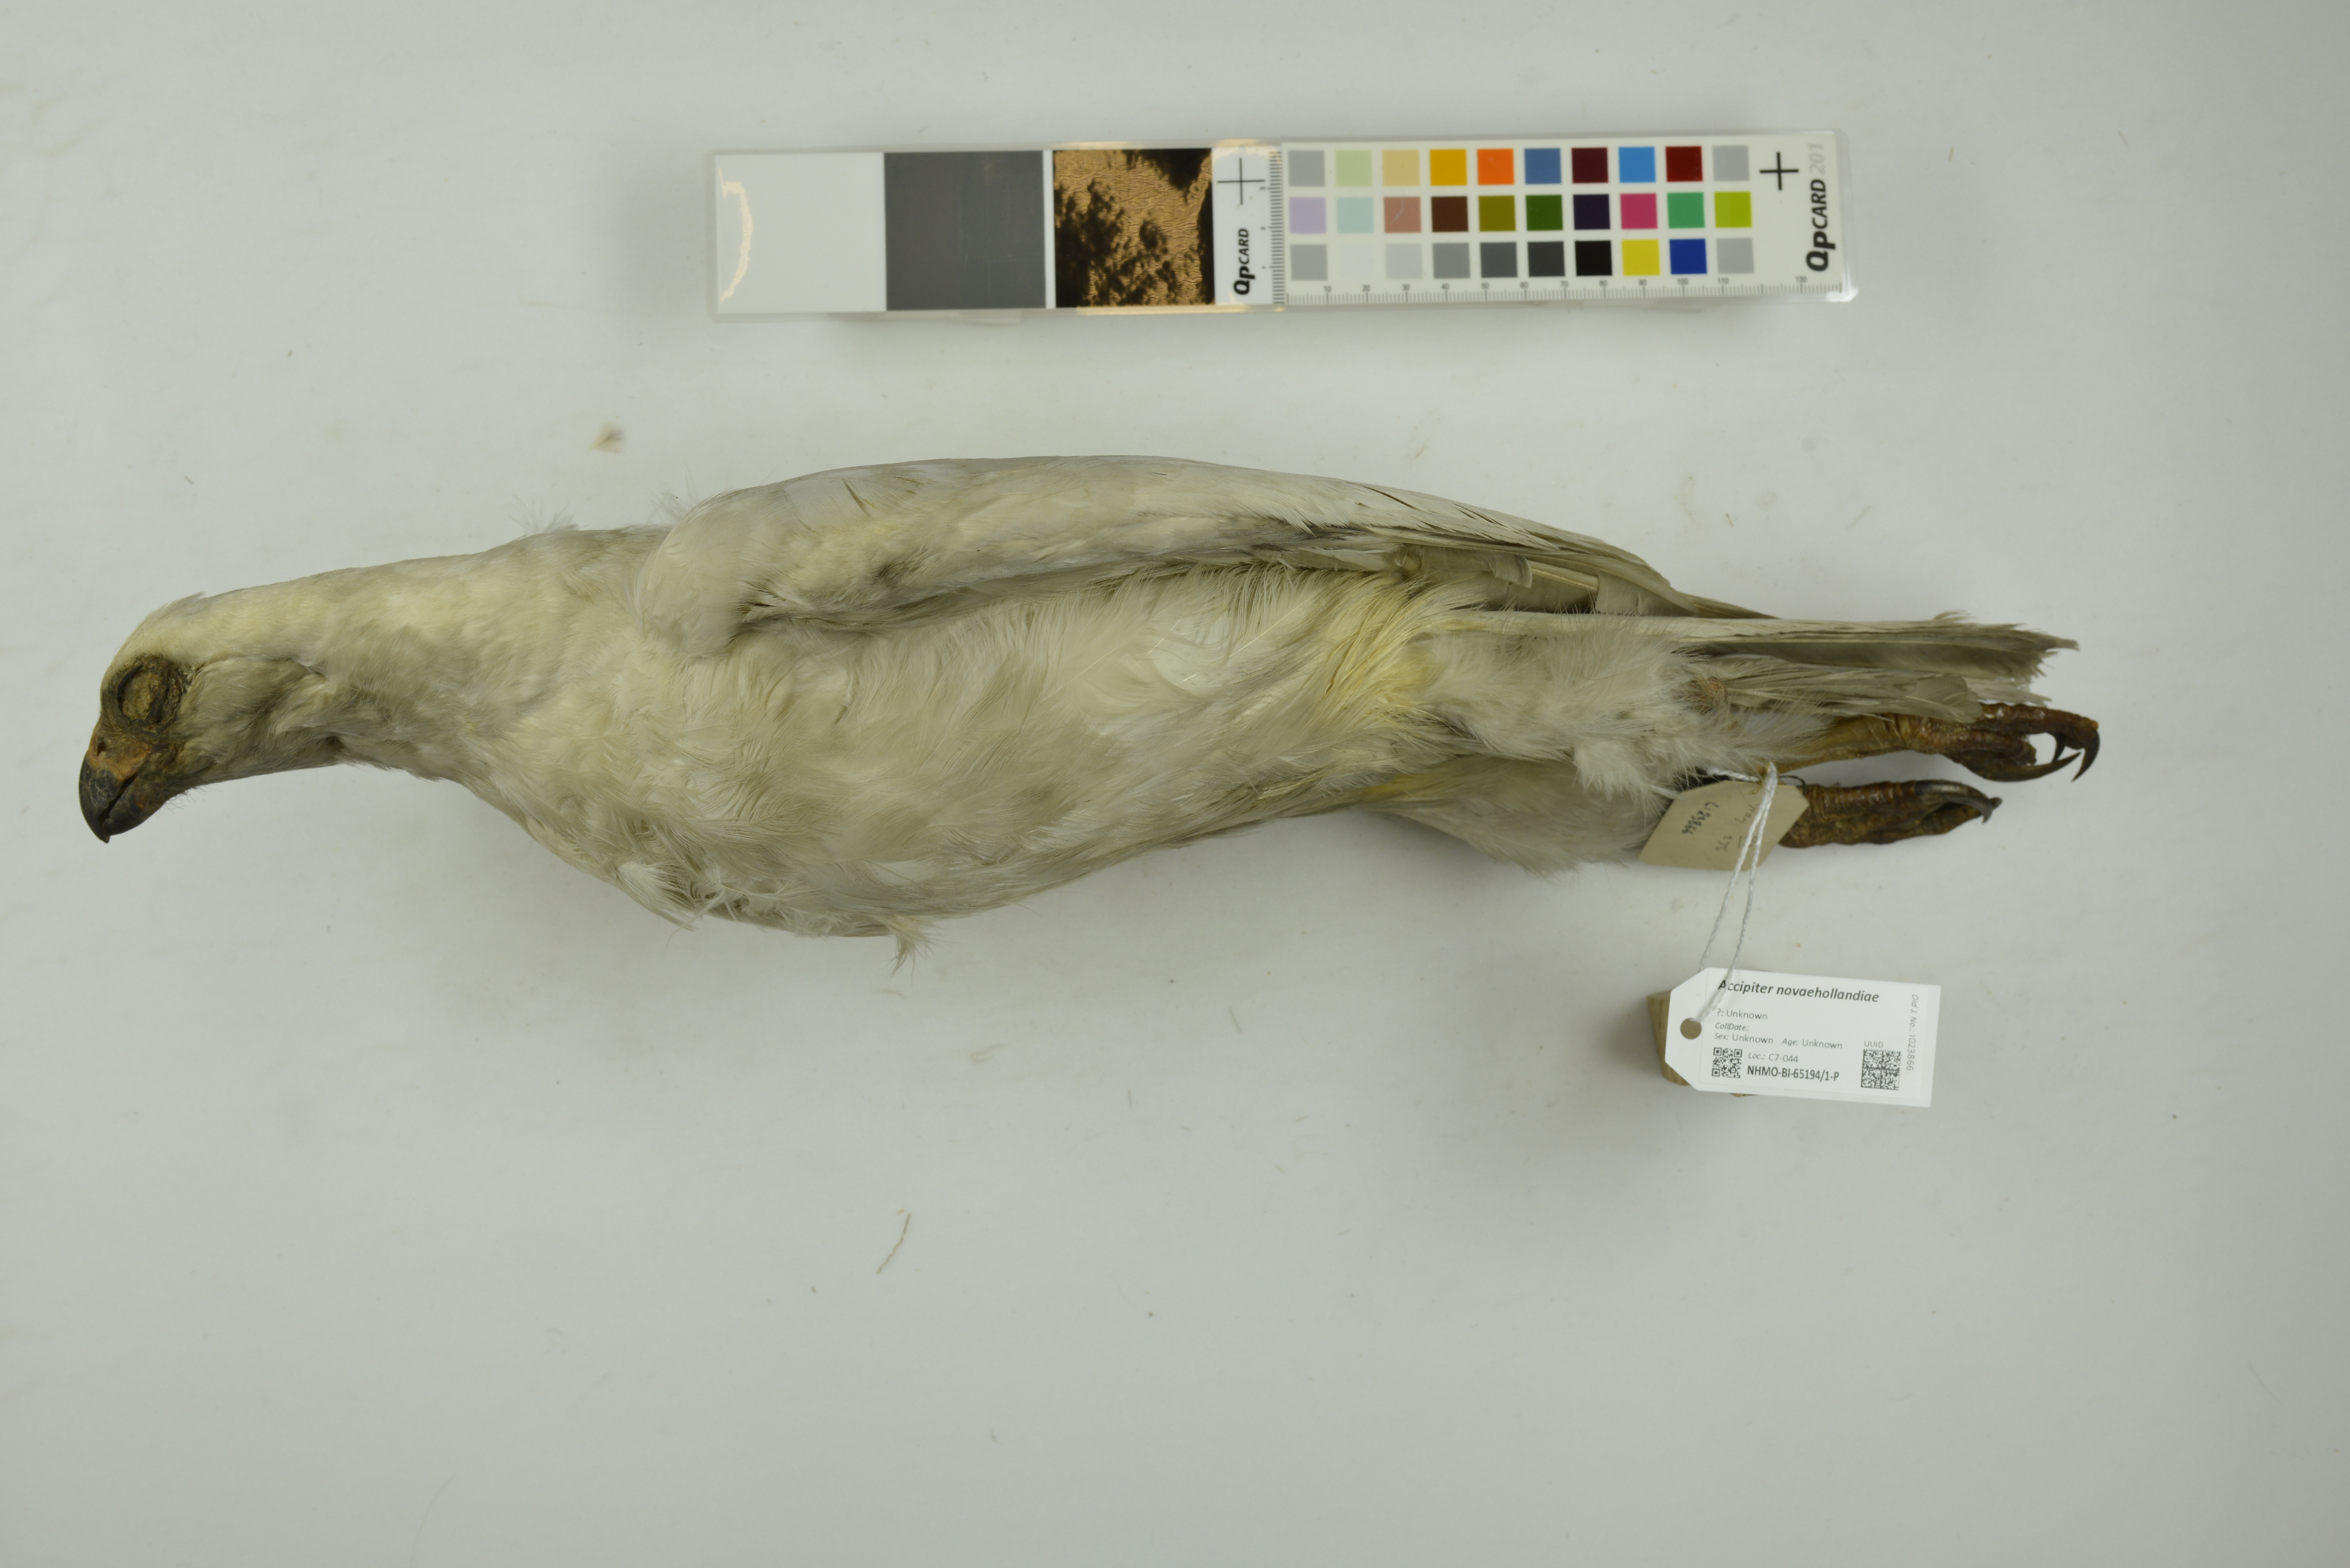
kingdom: Animalia
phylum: Chordata
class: Aves
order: Accipitriformes
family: Accipitridae
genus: Accipiter
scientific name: Accipiter novaehollandiae
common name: Grey goshawk
